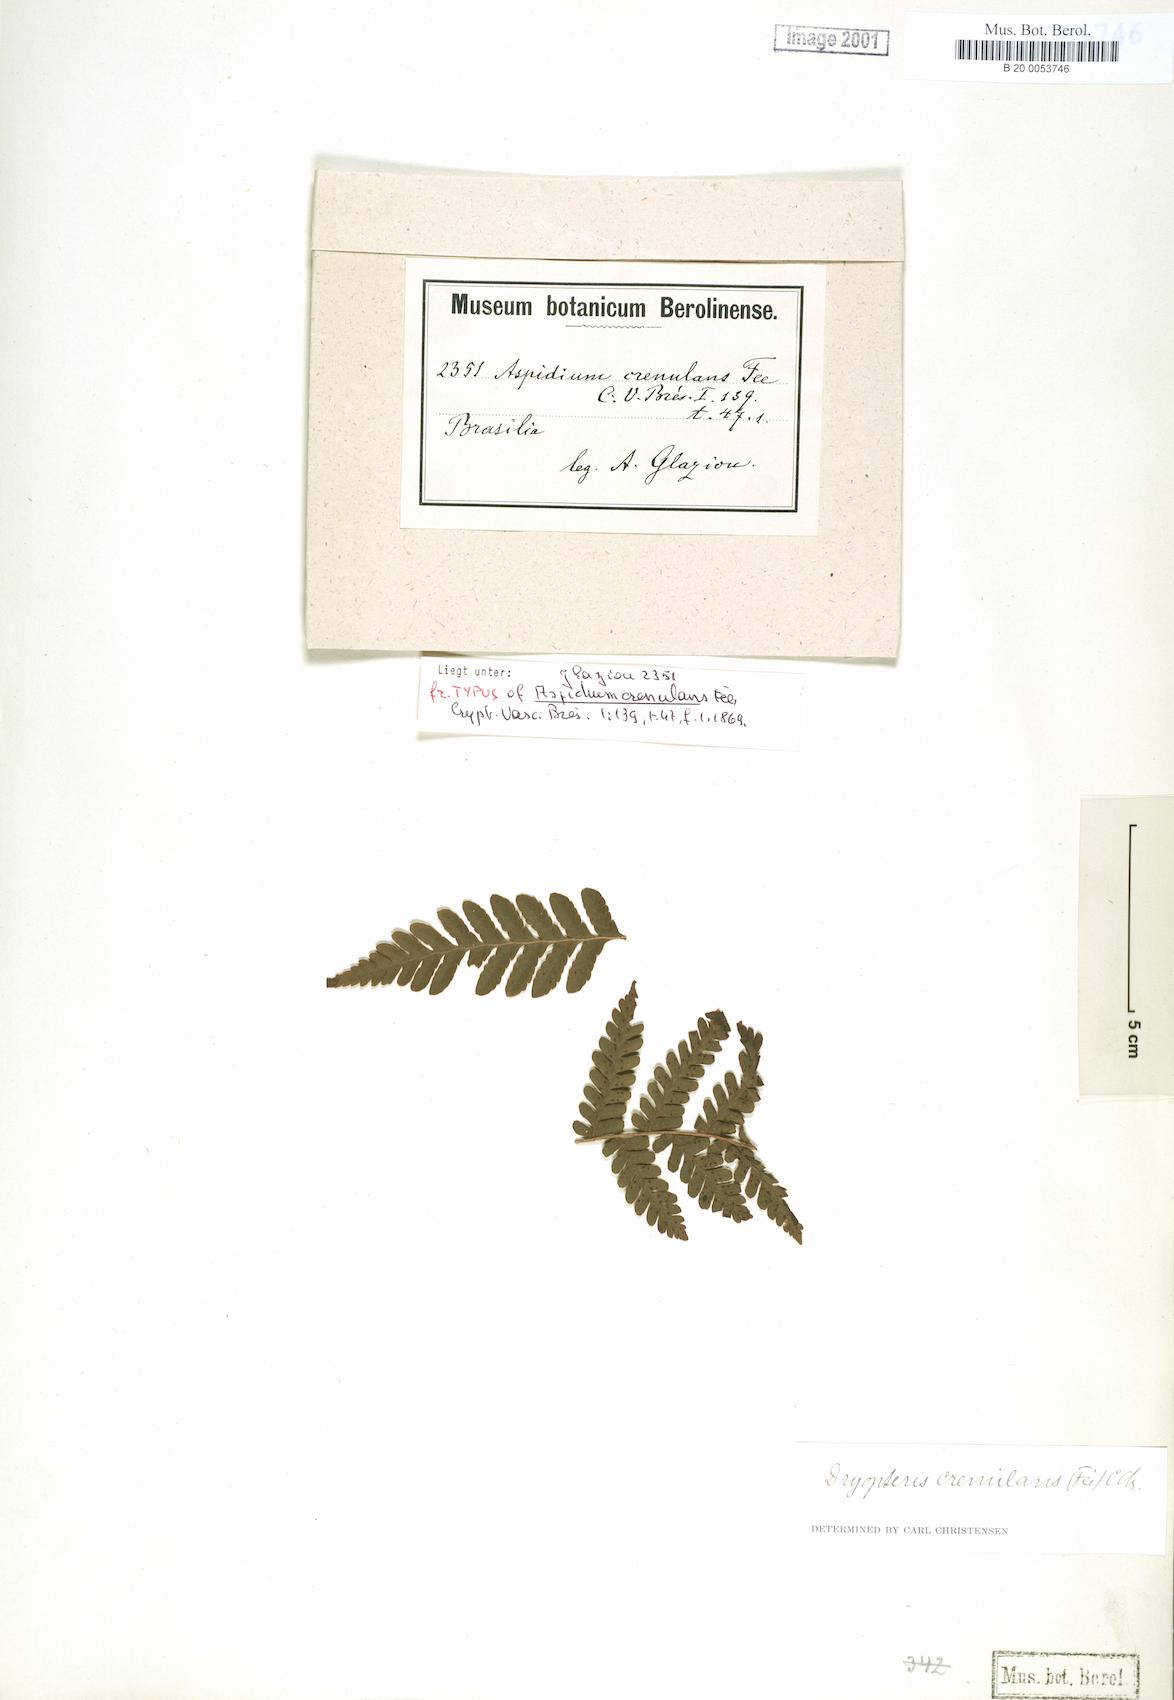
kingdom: Plantae
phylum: Tracheophyta
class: Polypodiopsida
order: Polypodiales
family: Dryopteridaceae
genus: Megalastrum
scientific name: Megalastrum crenulans
